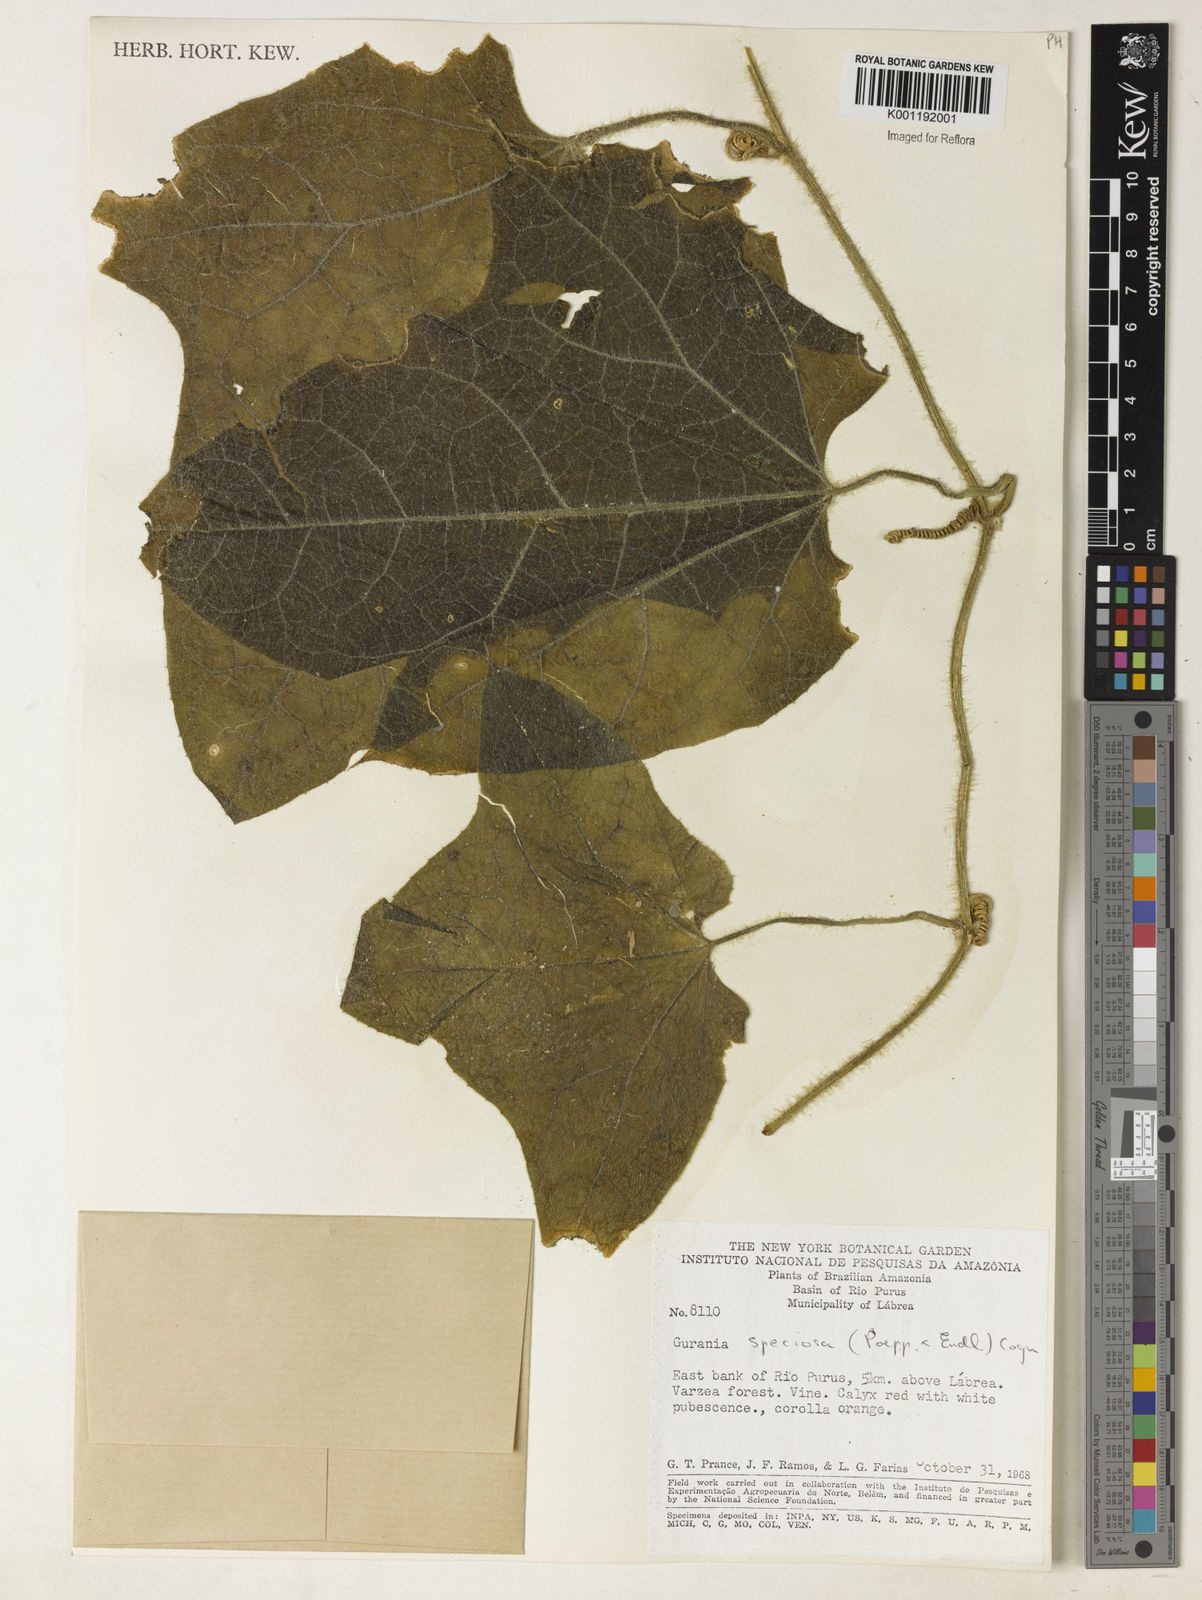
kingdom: Plantae
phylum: Tracheophyta
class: Magnoliopsida
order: Cucurbitales
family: Cucurbitaceae
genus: Gurania
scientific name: Gurania eriantha
